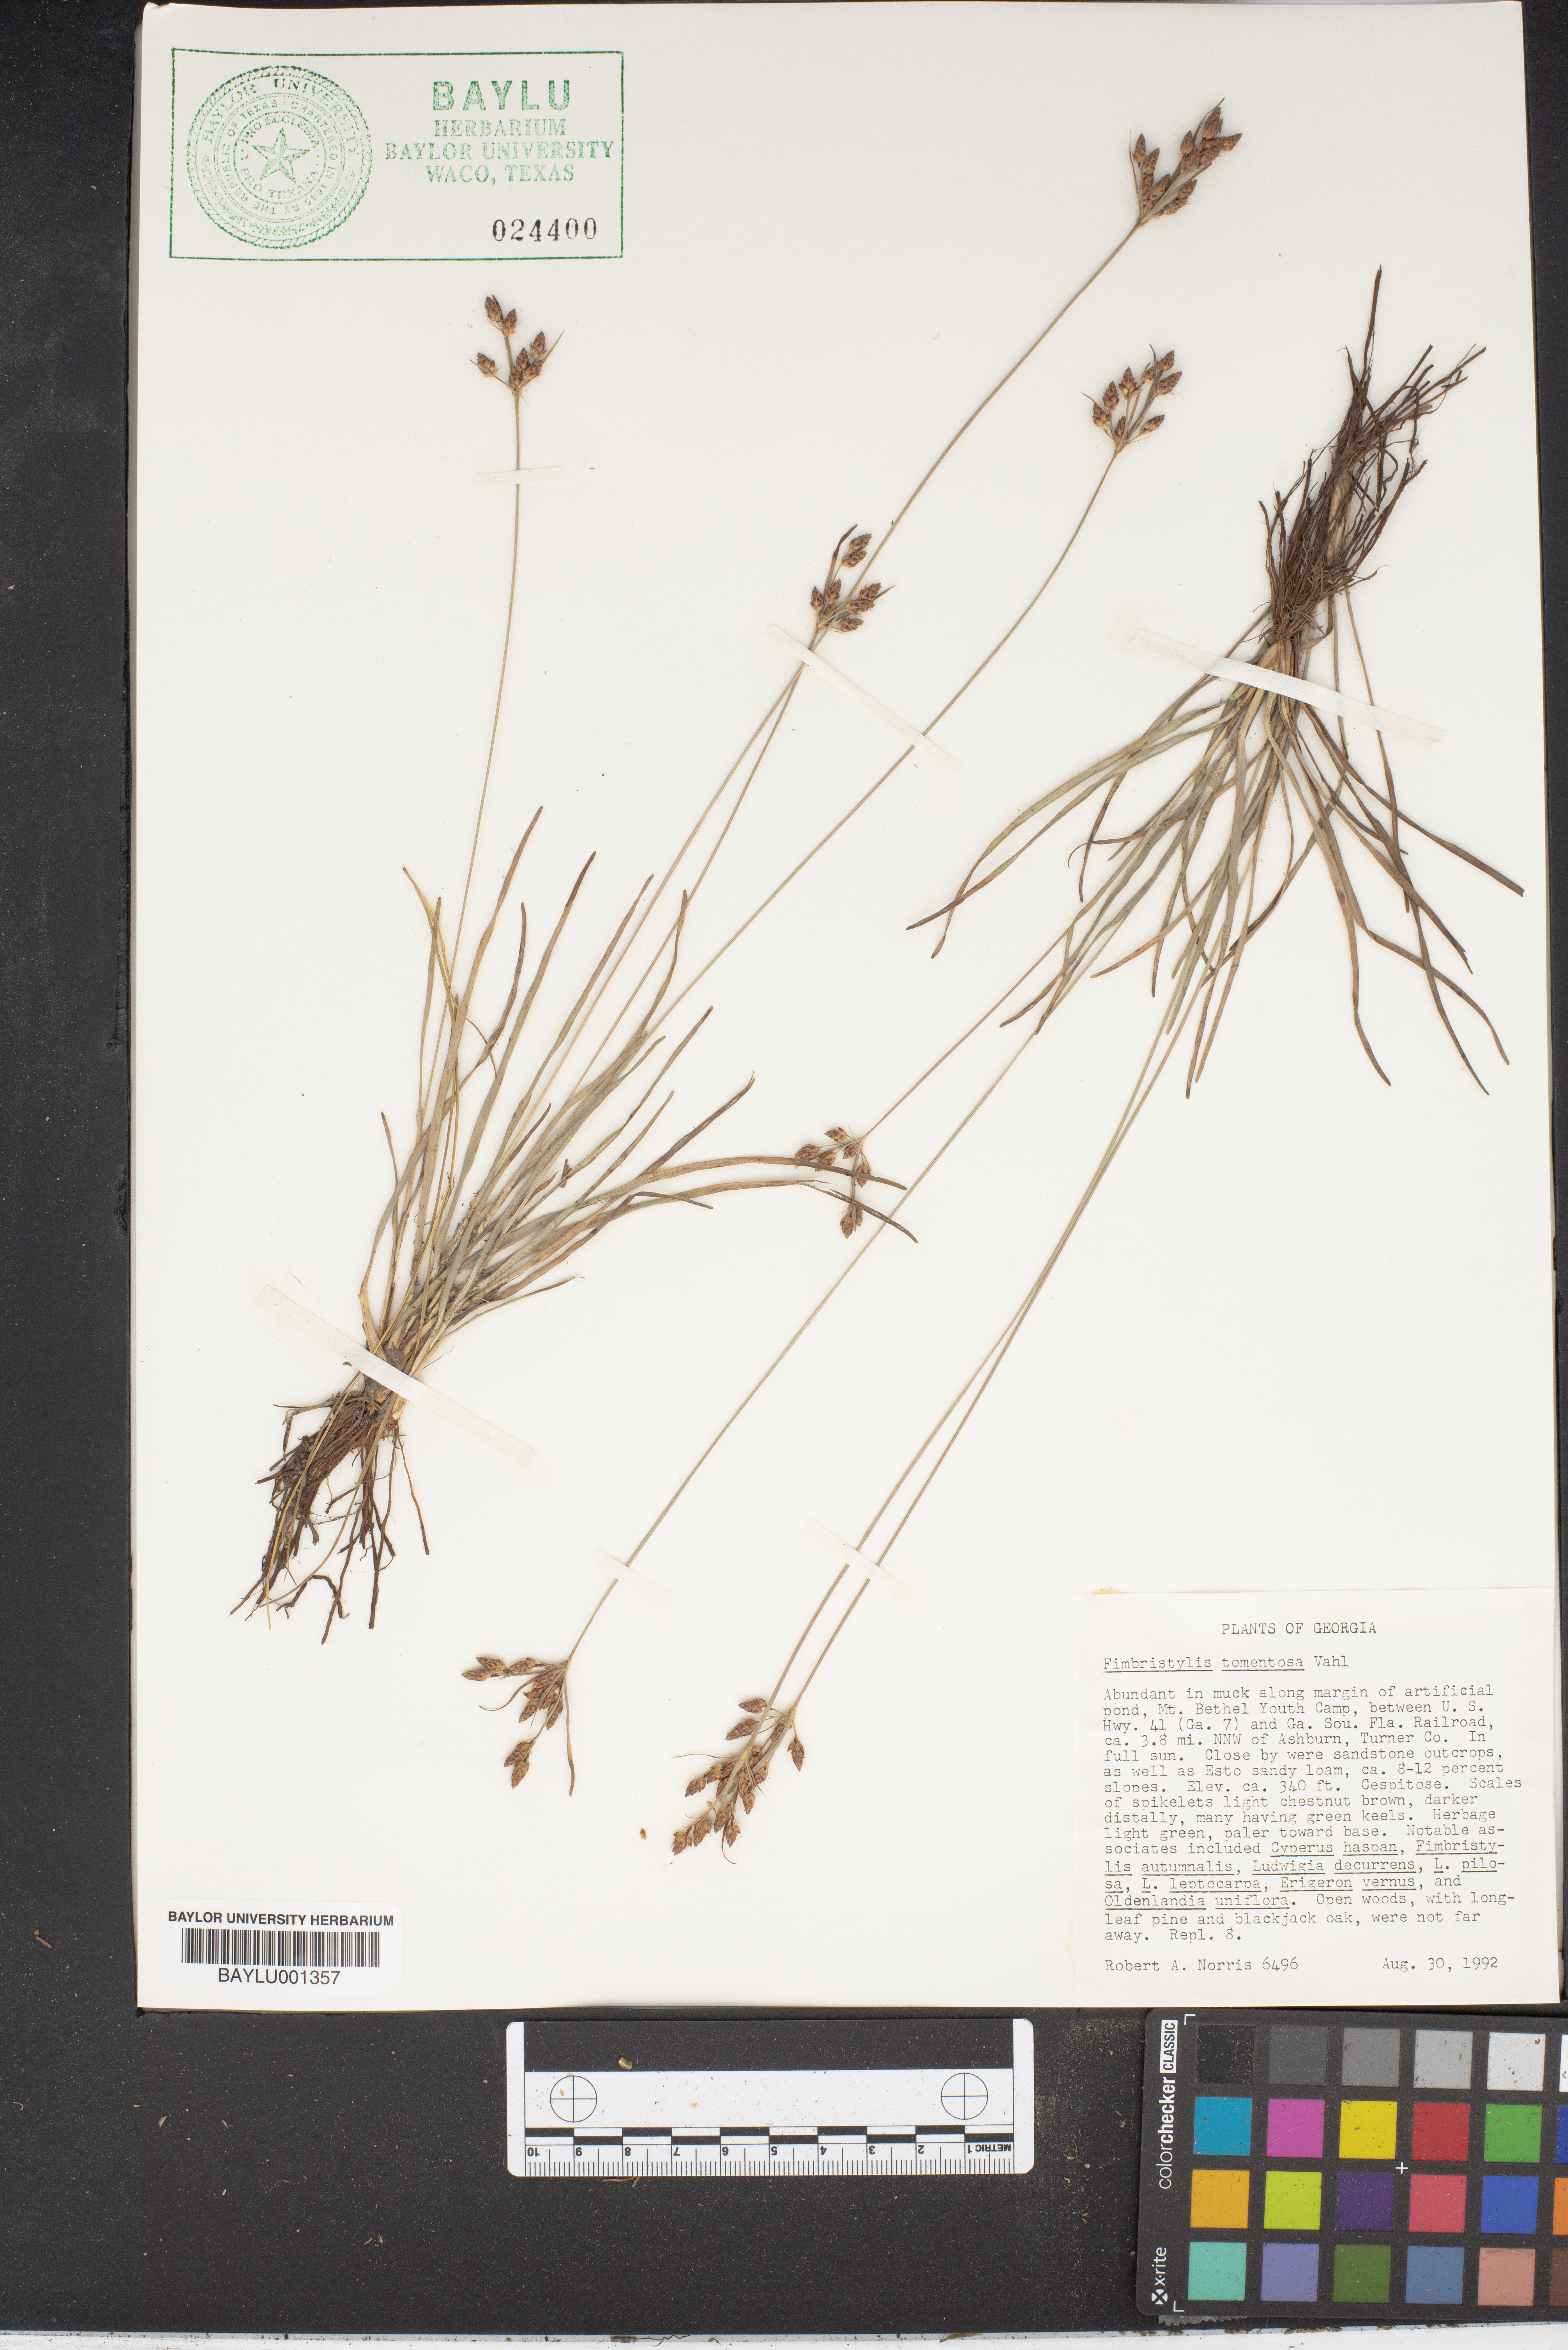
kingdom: Plantae
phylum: Tracheophyta
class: Liliopsida
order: Poales
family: Cyperaceae
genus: Fimbristylis
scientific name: Fimbristylis dichotoma
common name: Forked fimbry
